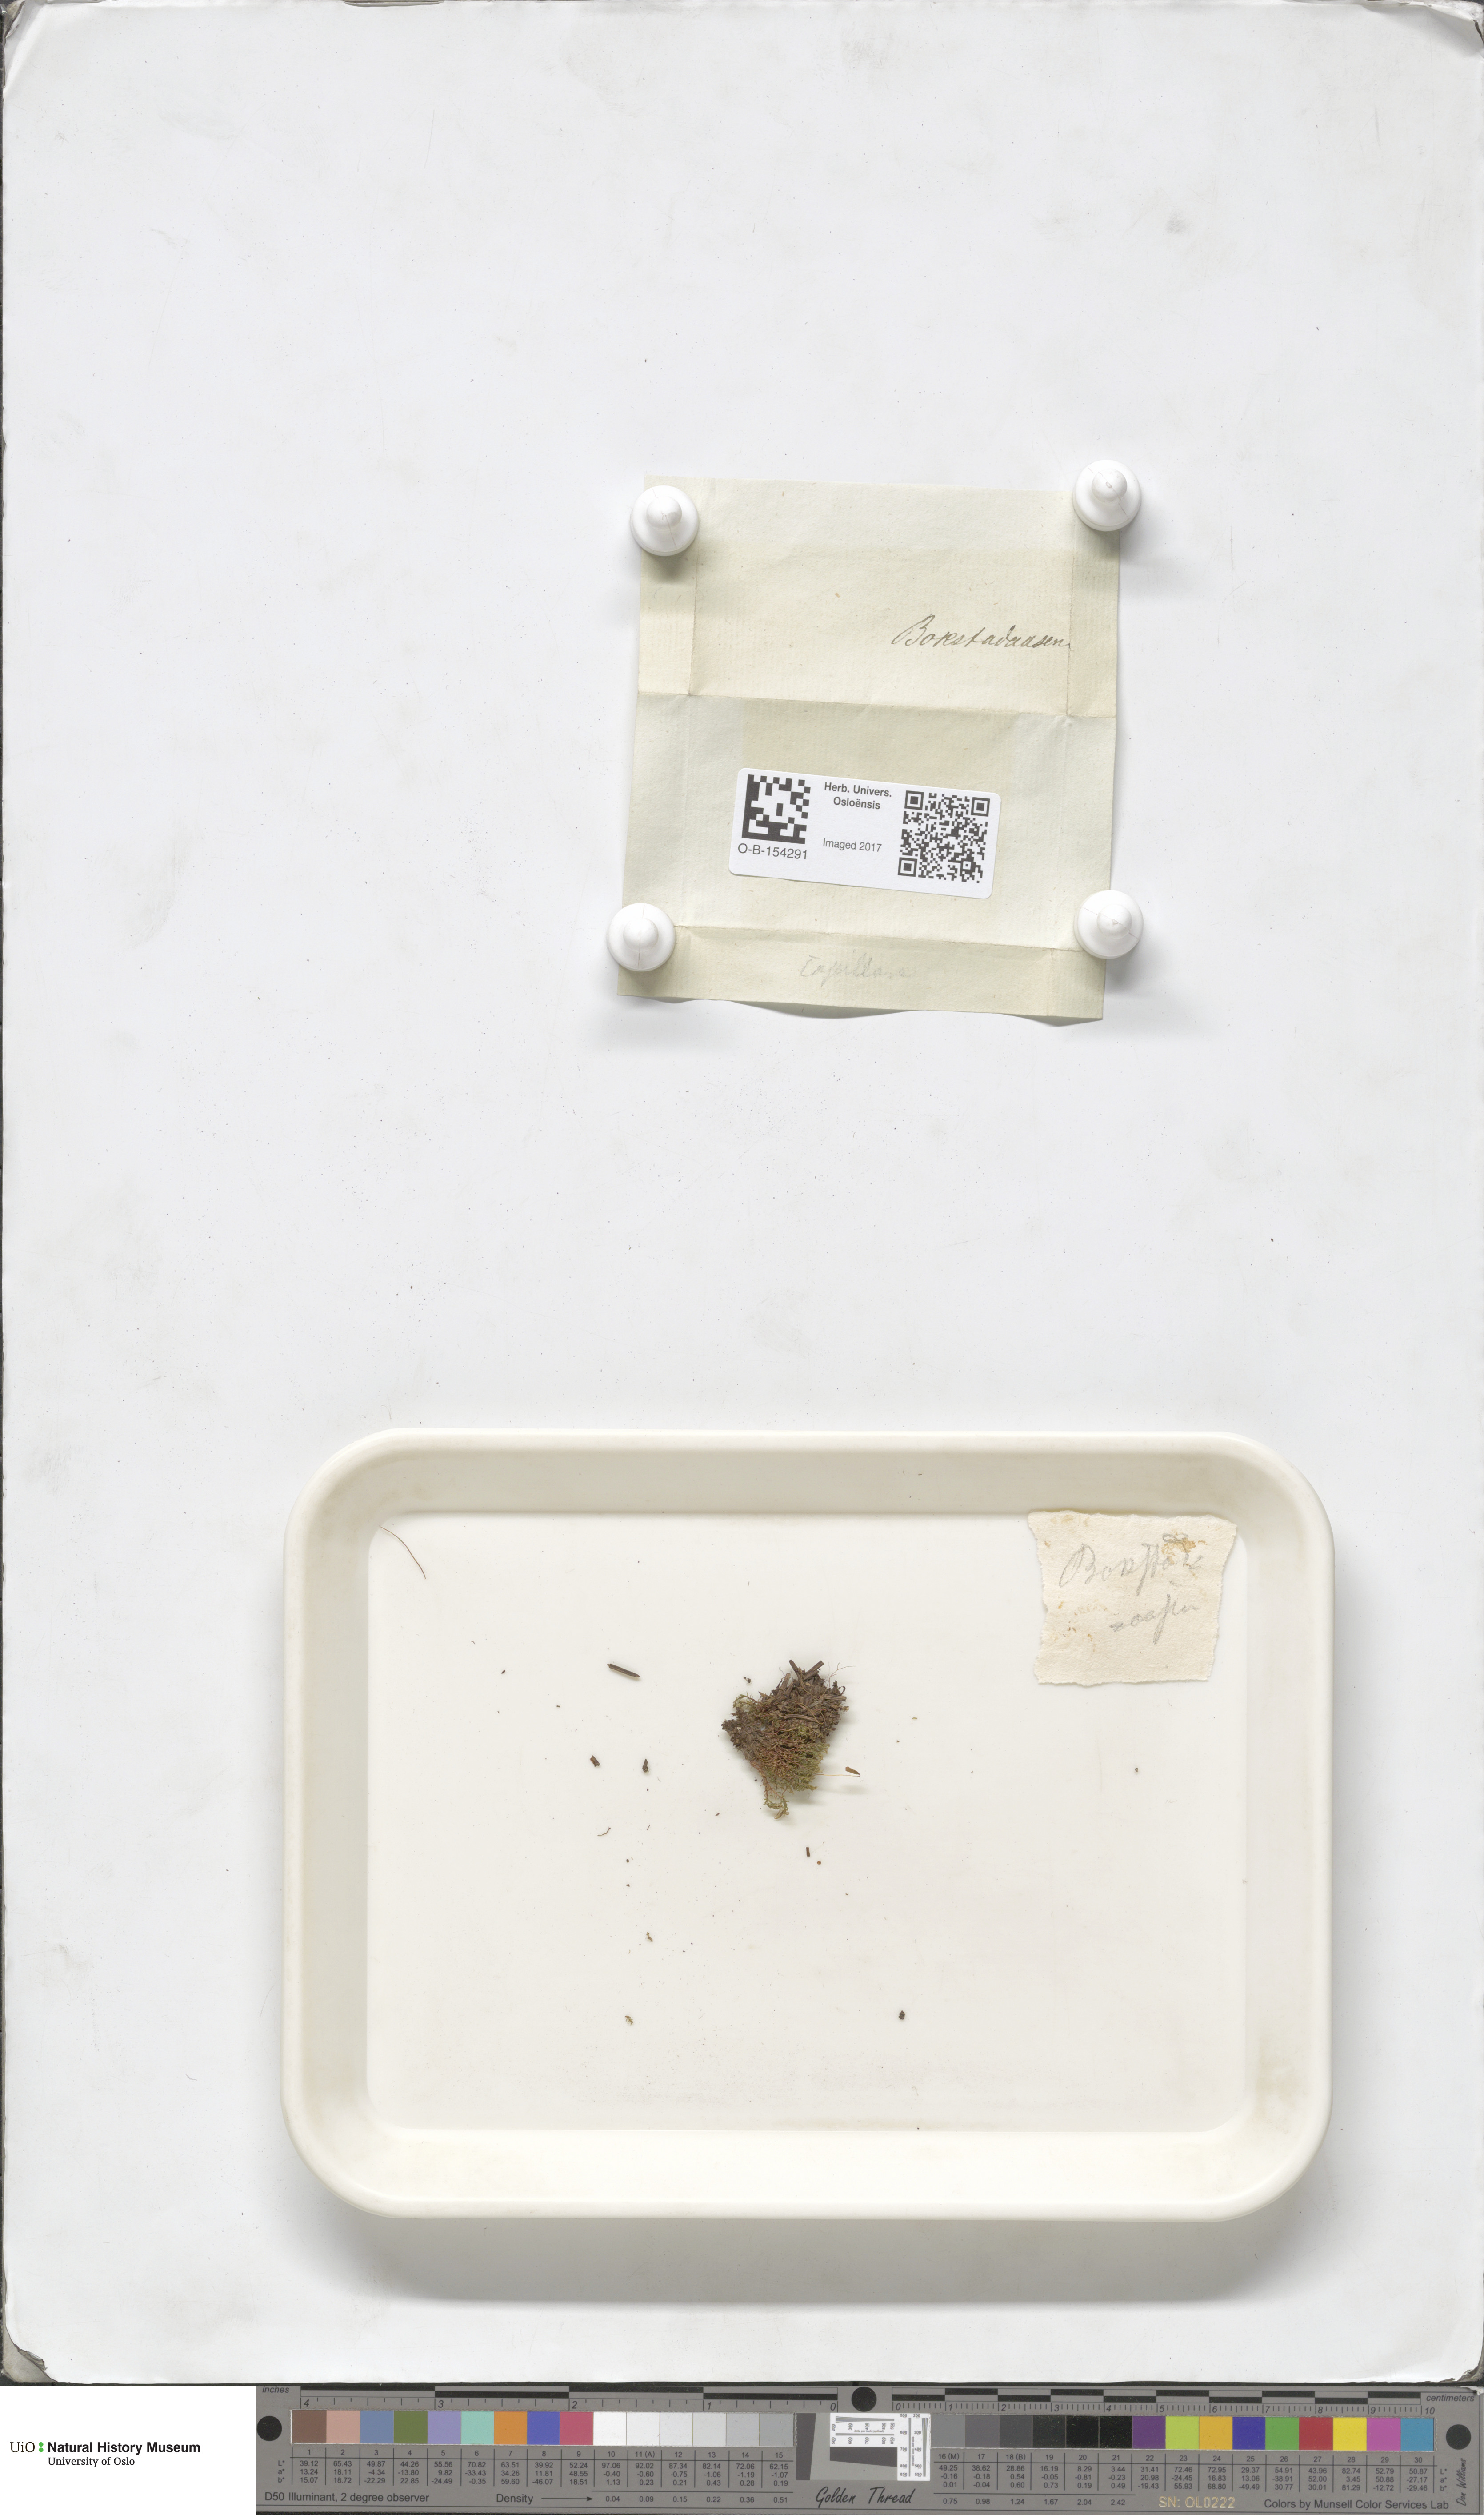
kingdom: Plantae
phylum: Bryophyta
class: Bryopsida
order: Bryales
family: Bryaceae
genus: Rosulabryum
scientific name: Rosulabryum capillare
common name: Capillary thread-moss
